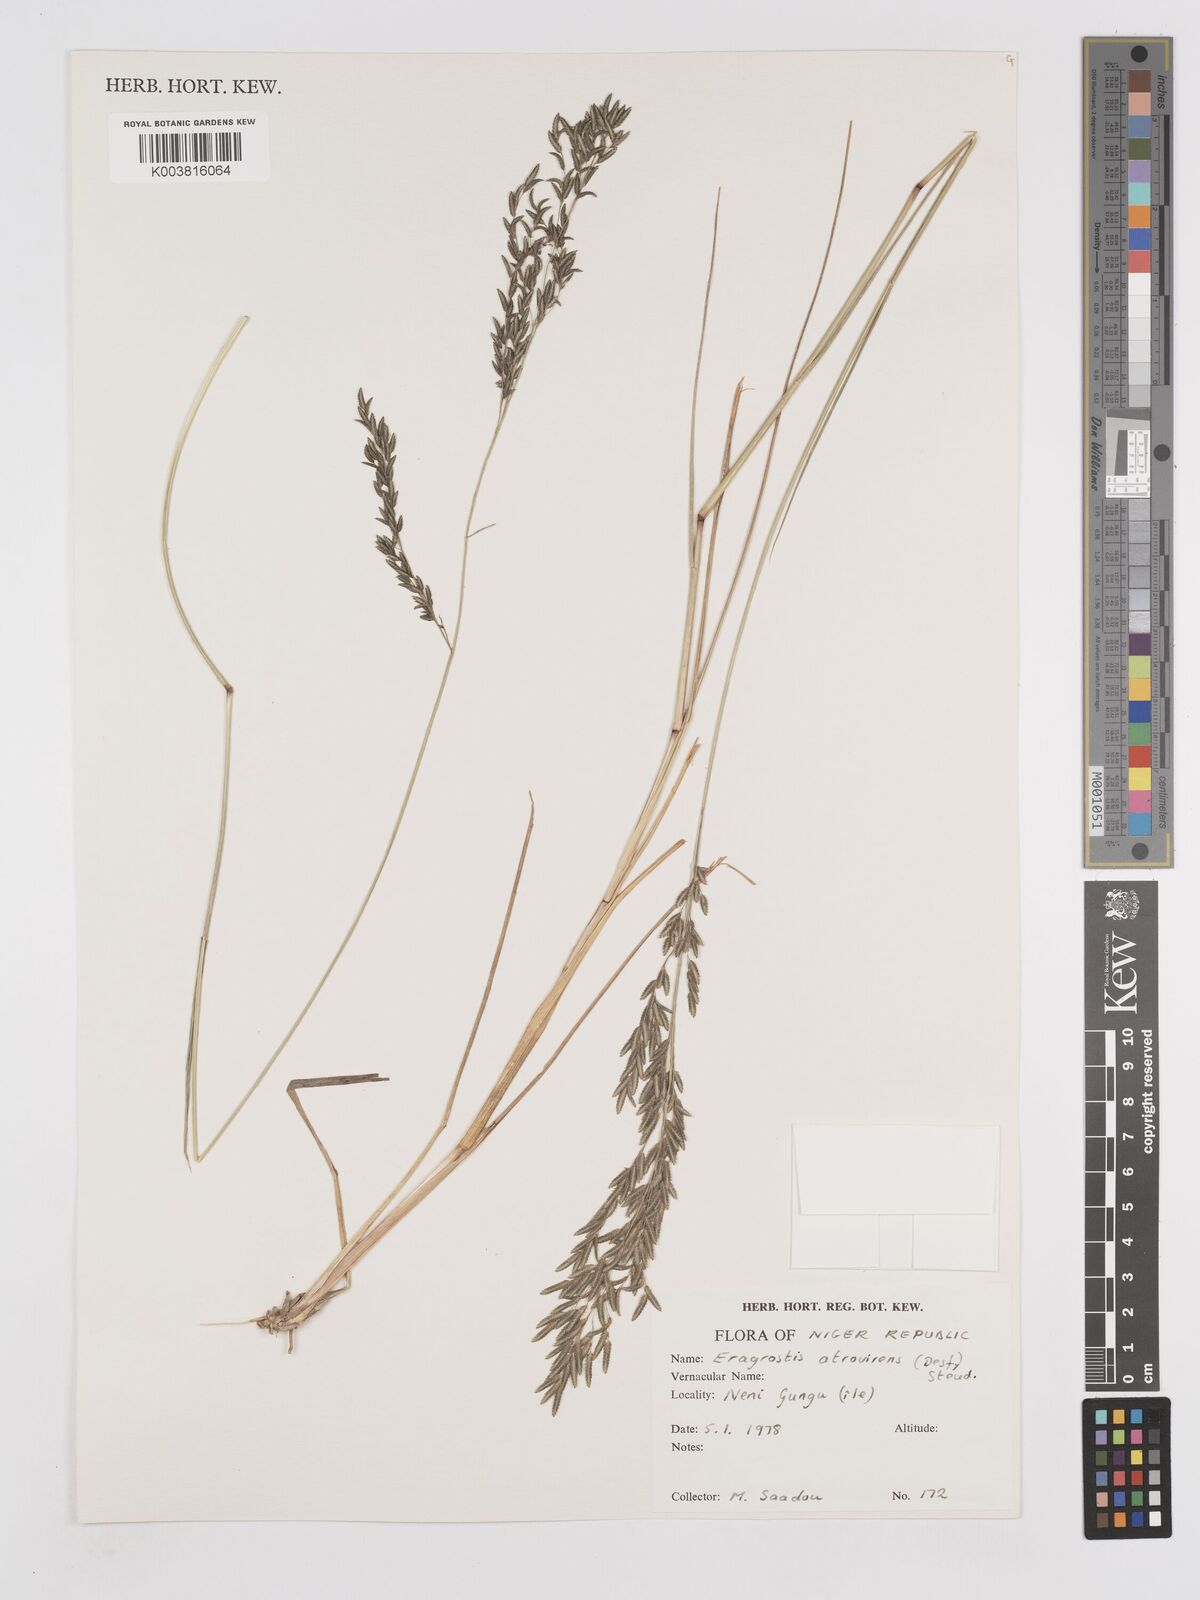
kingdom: Plantae
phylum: Tracheophyta
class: Liliopsida
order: Poales
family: Poaceae
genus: Eragrostis
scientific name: Eragrostis atrovirens
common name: Thalia lovegrass
